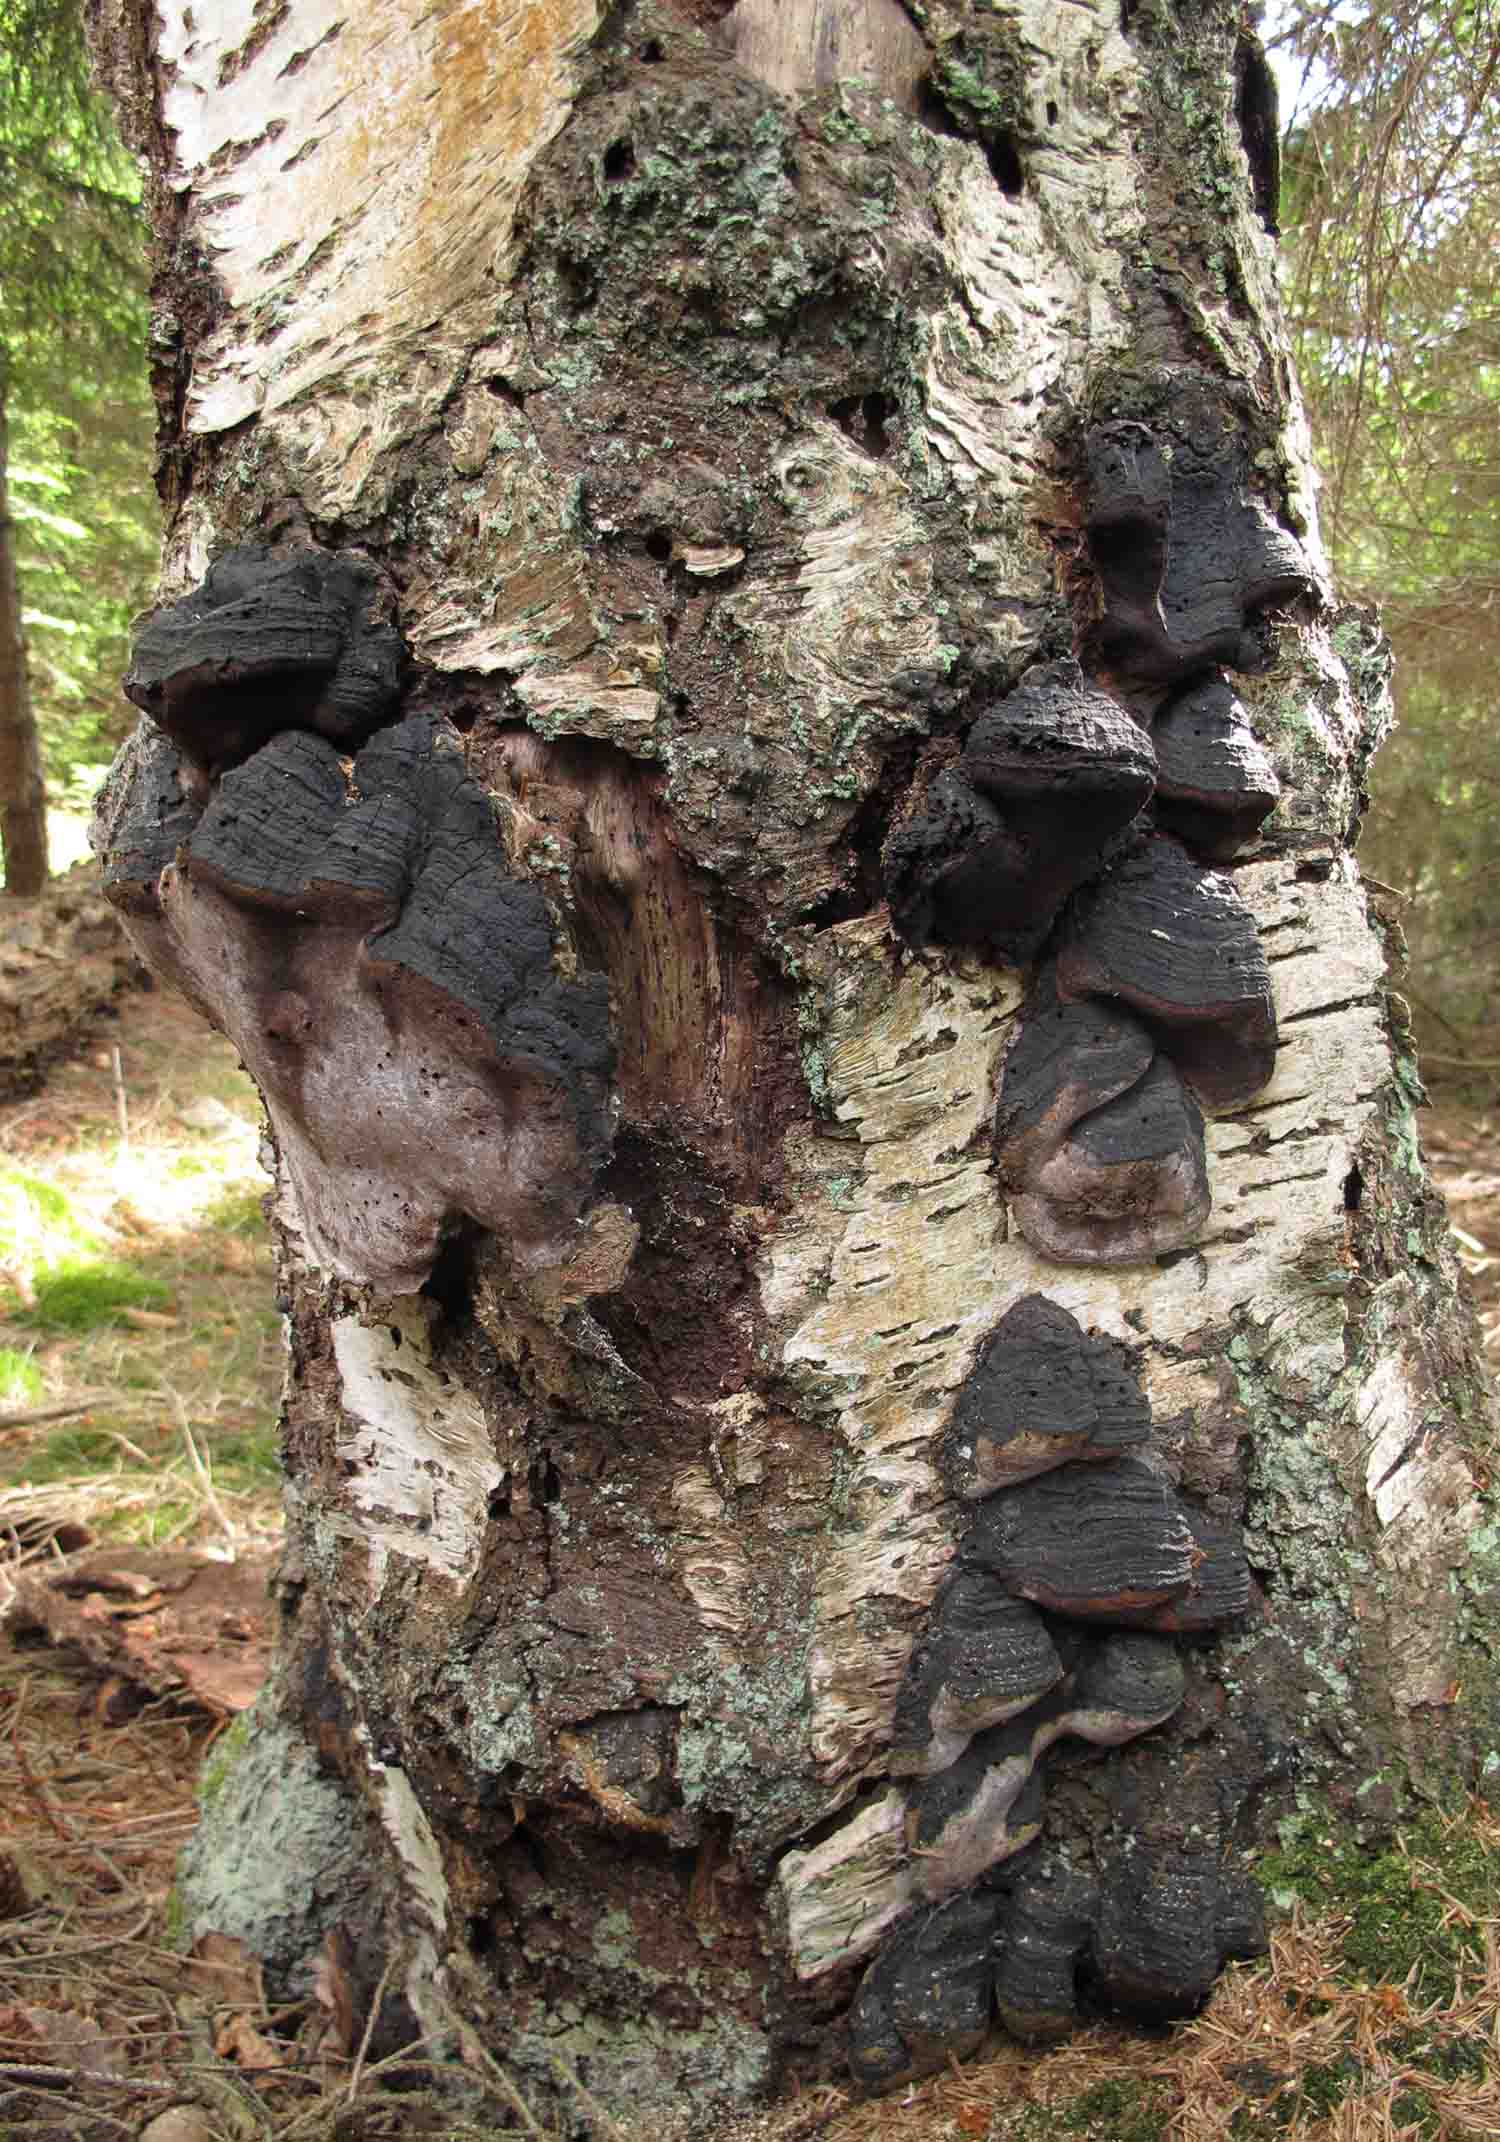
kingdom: Fungi
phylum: Basidiomycota
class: Agaricomycetes
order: Hymenochaetales
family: Hymenochaetaceae
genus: Phellinus
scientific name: Phellinus lundellii
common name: birke-ildporesvamp
